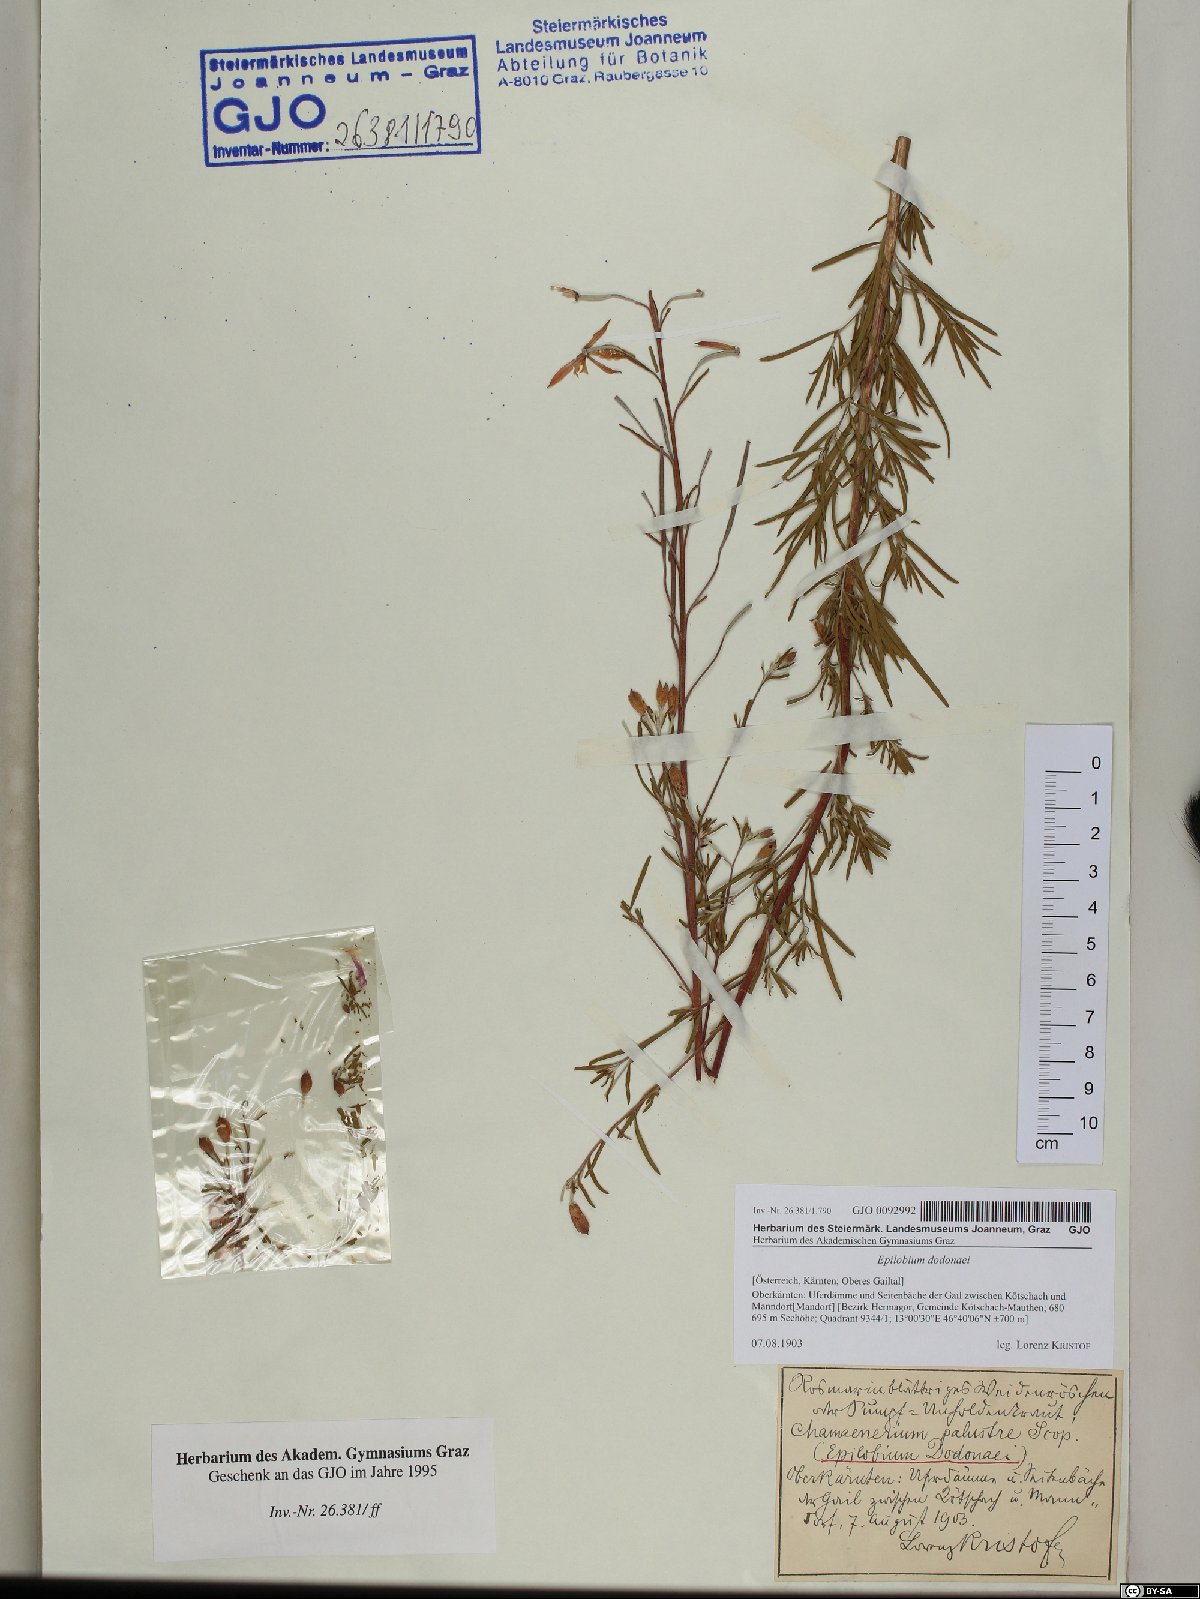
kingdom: Plantae
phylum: Tracheophyta
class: Magnoliopsida
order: Myrtales
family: Onagraceae
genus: Chamaenerion
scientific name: Chamaenerion dodonaei
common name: Rosemary-leaved willowherb
